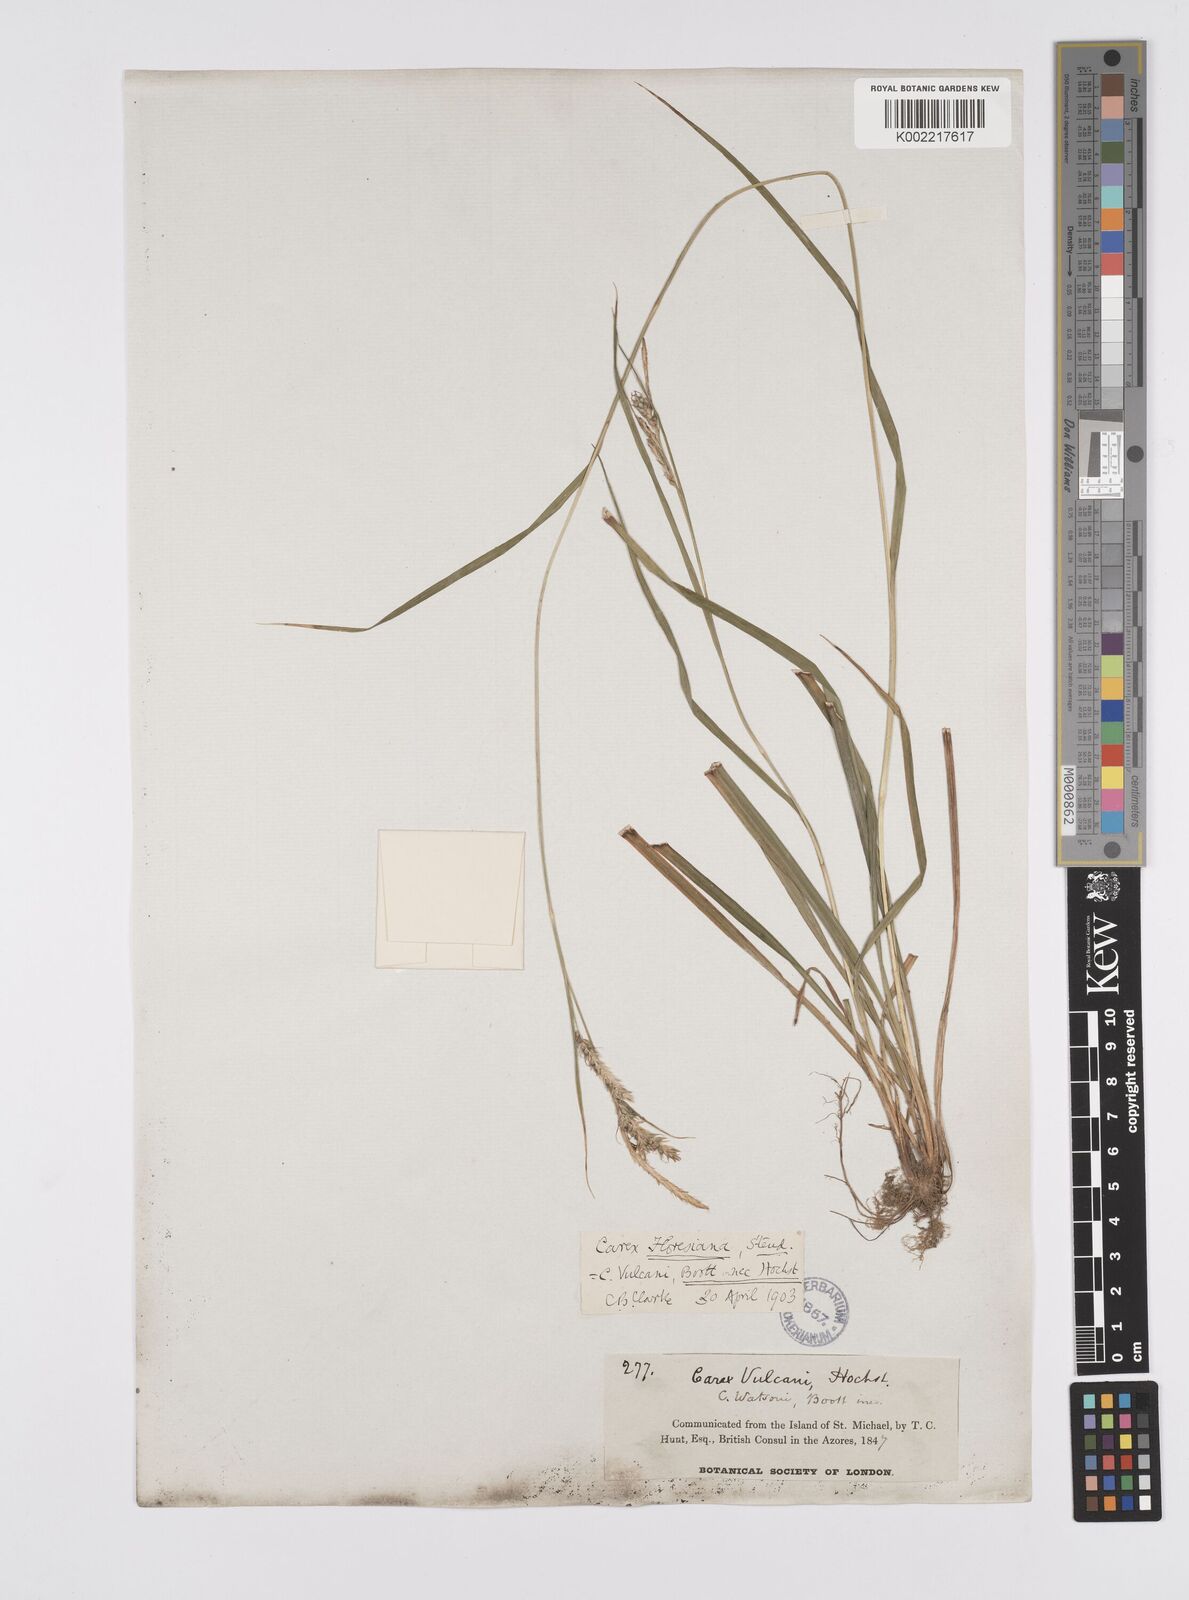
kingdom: Plantae
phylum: Tracheophyta
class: Liliopsida
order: Poales
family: Cyperaceae
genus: Carex
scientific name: Carex vulcani
